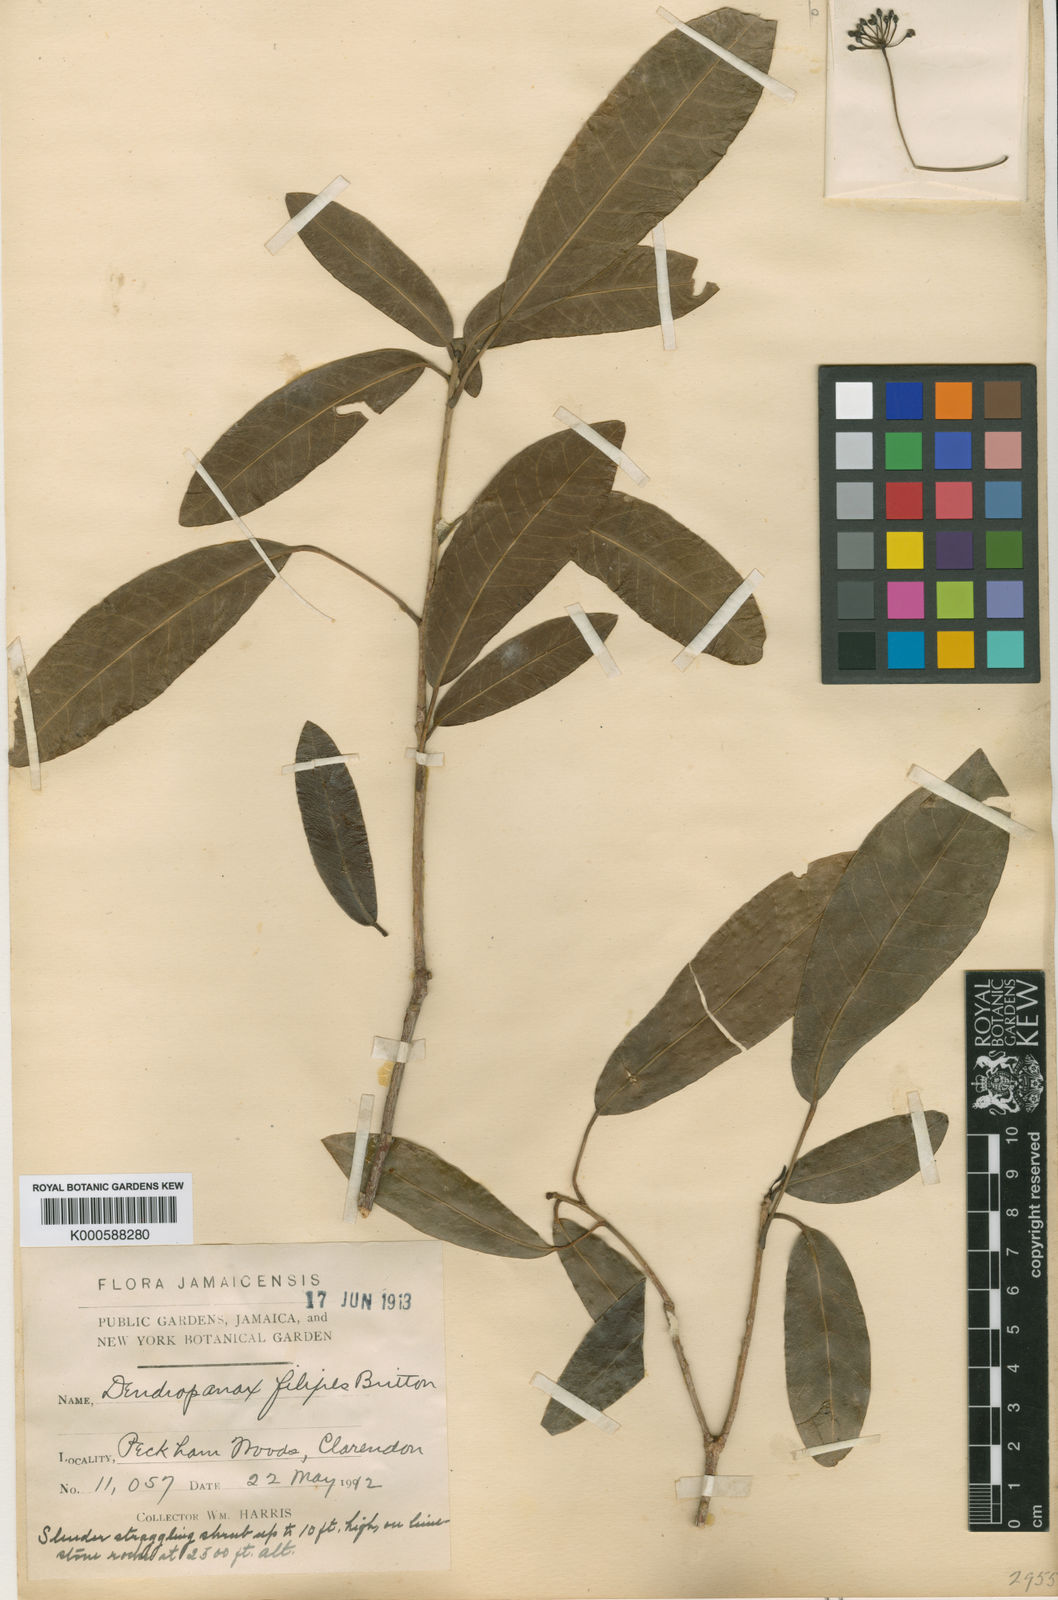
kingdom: Plantae
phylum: Tracheophyta
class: Magnoliopsida
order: Apiales
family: Araliaceae
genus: Dendropanax
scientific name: Dendropanax filipes
